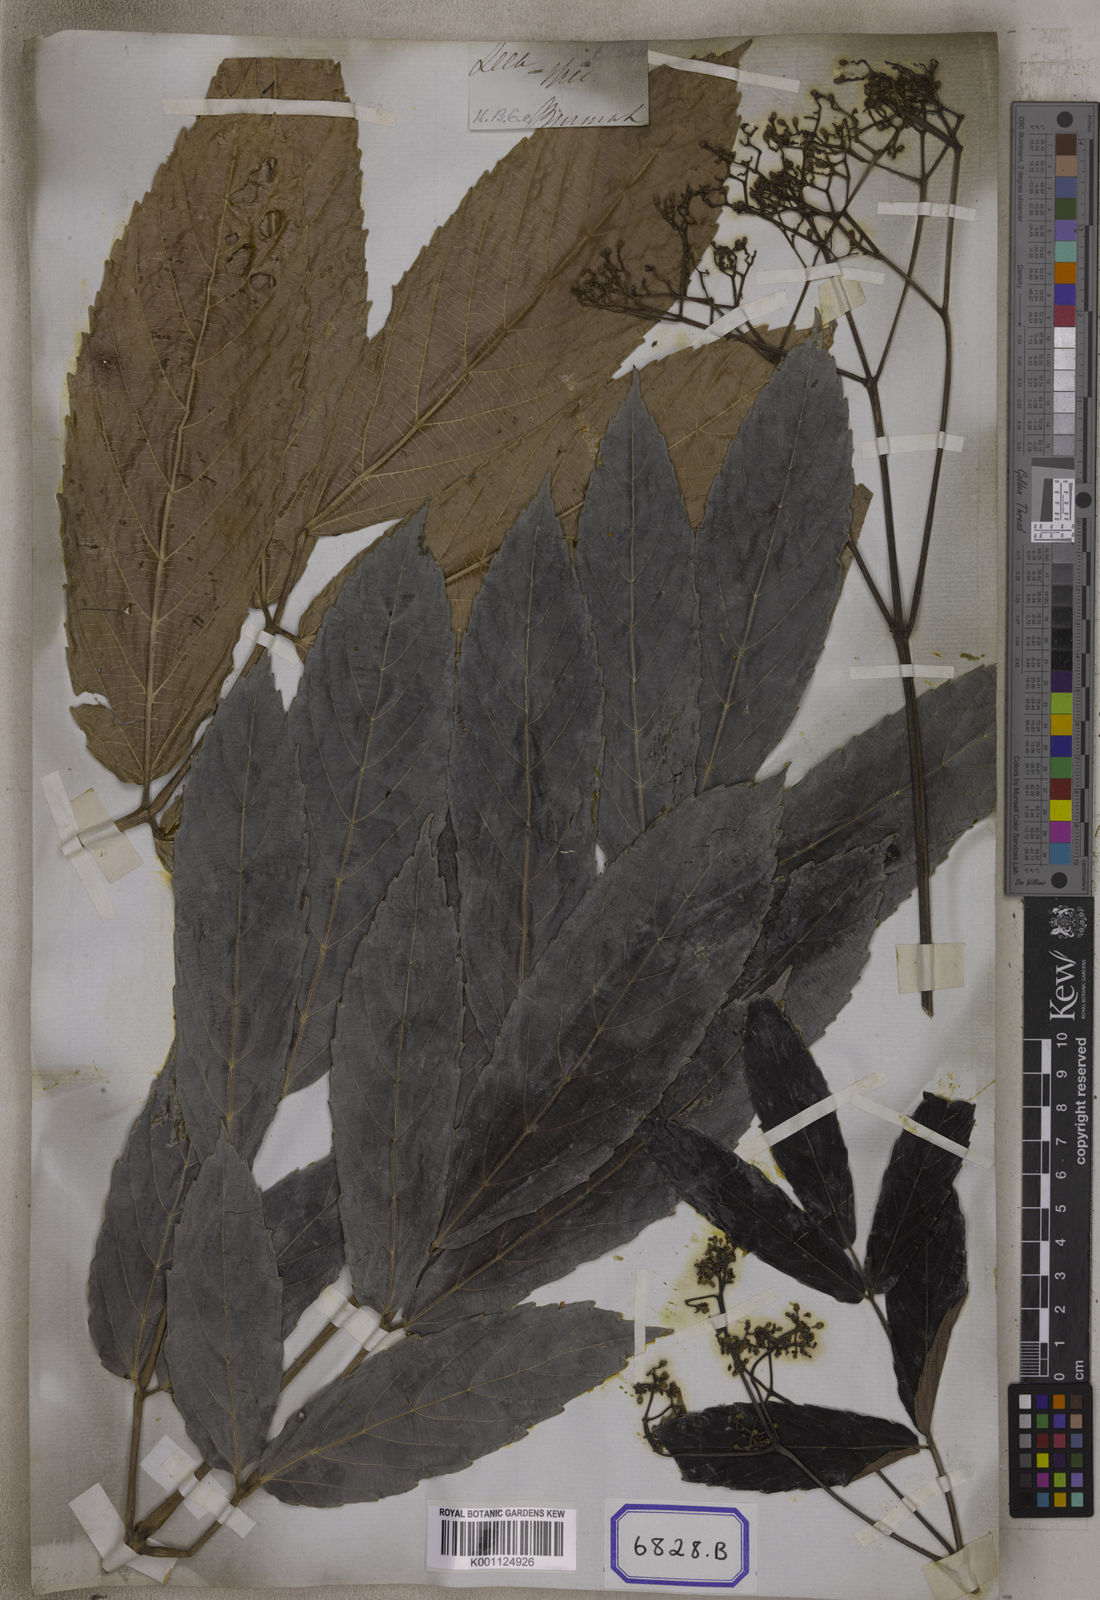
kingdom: Plantae
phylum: Tracheophyta
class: Magnoliopsida
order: Vitales
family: Vitaceae
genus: Leea
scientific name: Leea macrophylla
